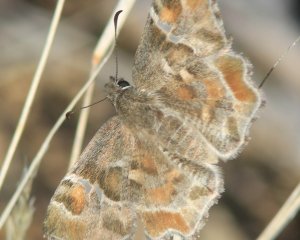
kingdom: Animalia
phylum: Arthropoda
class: Insecta
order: Lepidoptera
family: Hesperiidae
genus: Systasea
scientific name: Systasea zampa
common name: Arizona Powdered-Skipper
